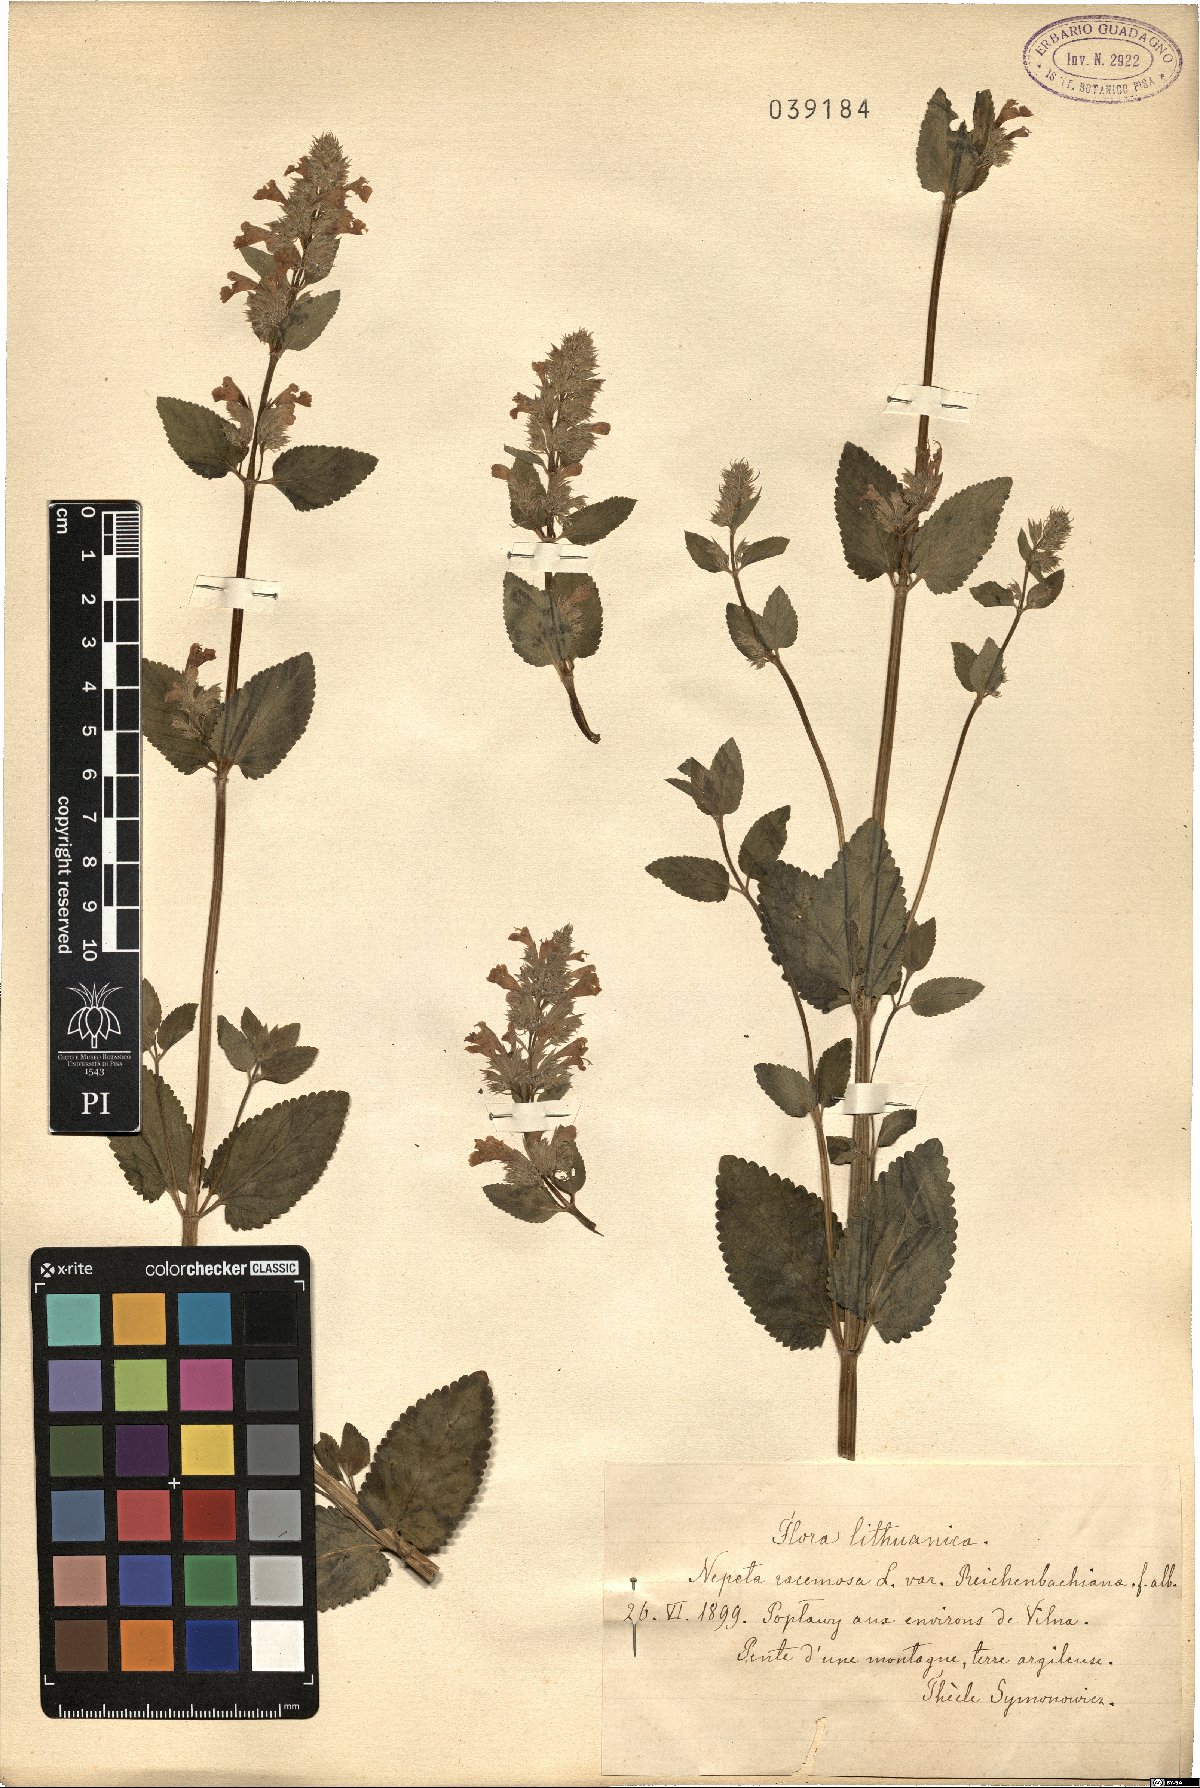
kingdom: Plantae
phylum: Tracheophyta
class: Magnoliopsida
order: Lamiales
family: Lamiaceae
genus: Nepeta
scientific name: Nepeta racemosa
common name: Raceme catnip
